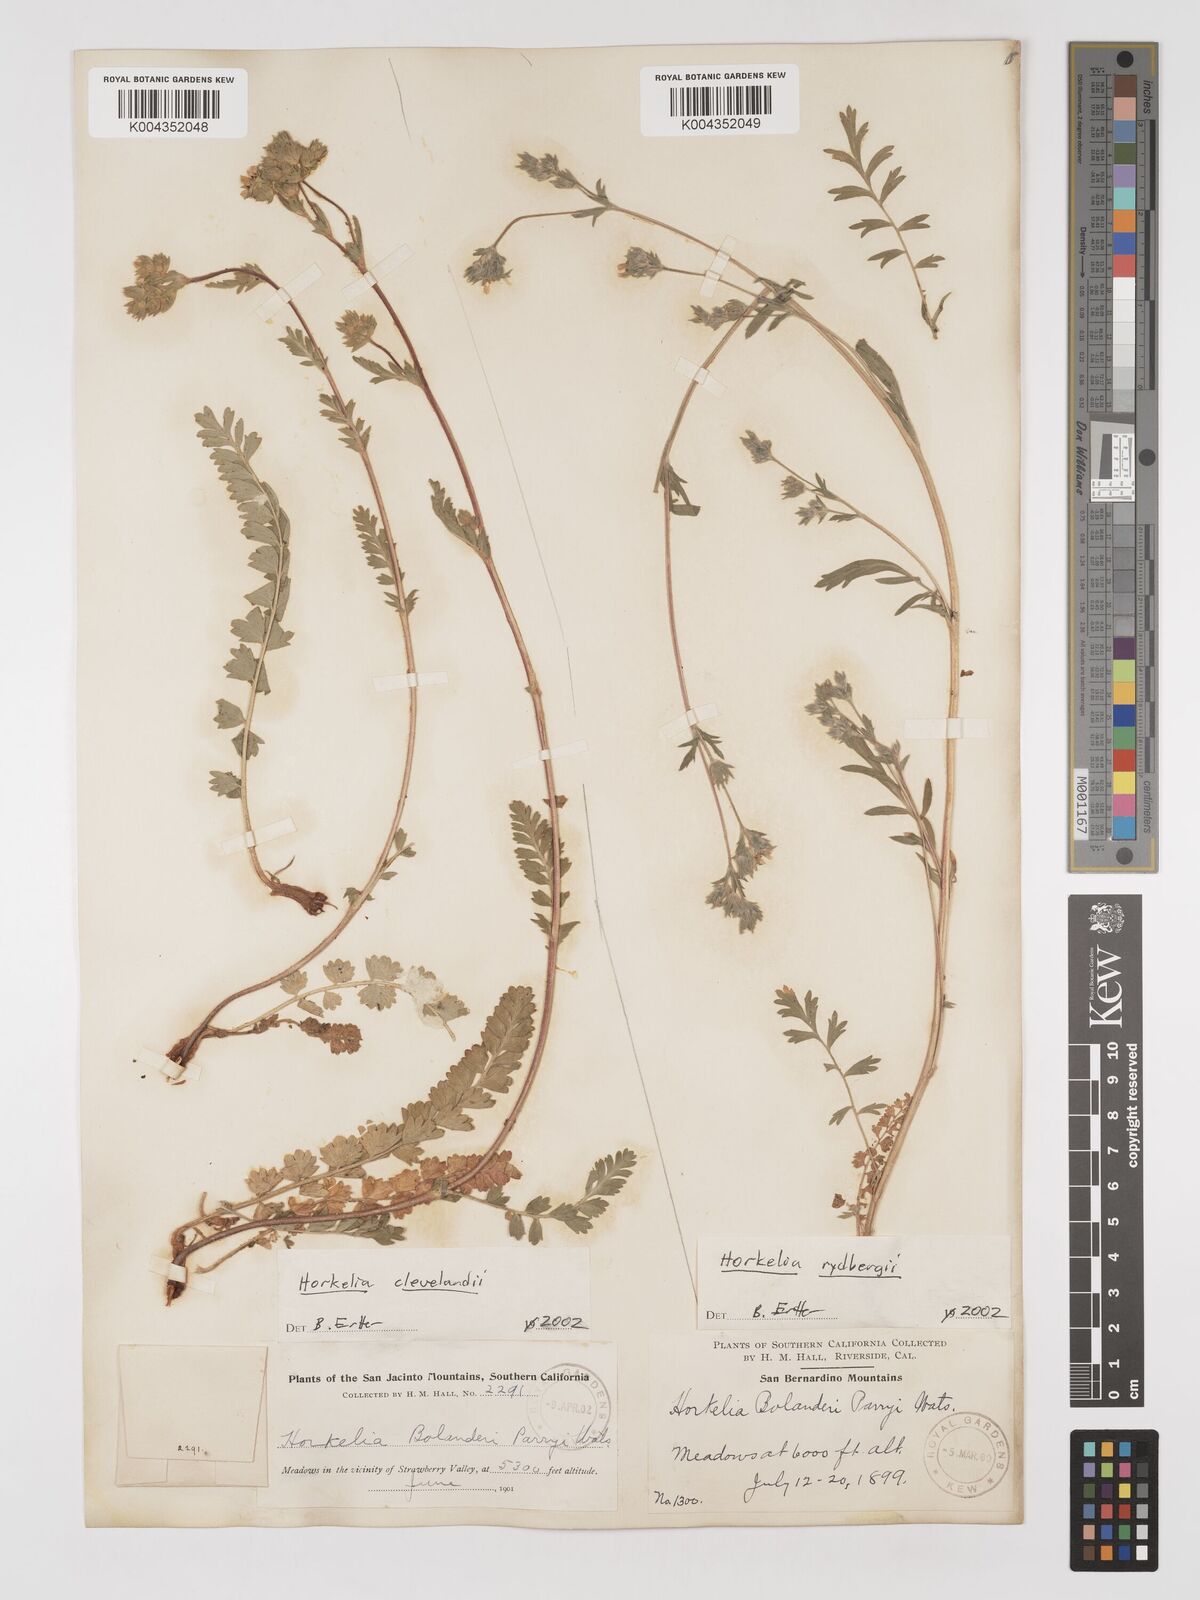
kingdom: Plantae
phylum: Tracheophyta
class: Magnoliopsida
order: Rosales
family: Rosaceae
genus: Potentilla
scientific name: Potentilla clevelandii
